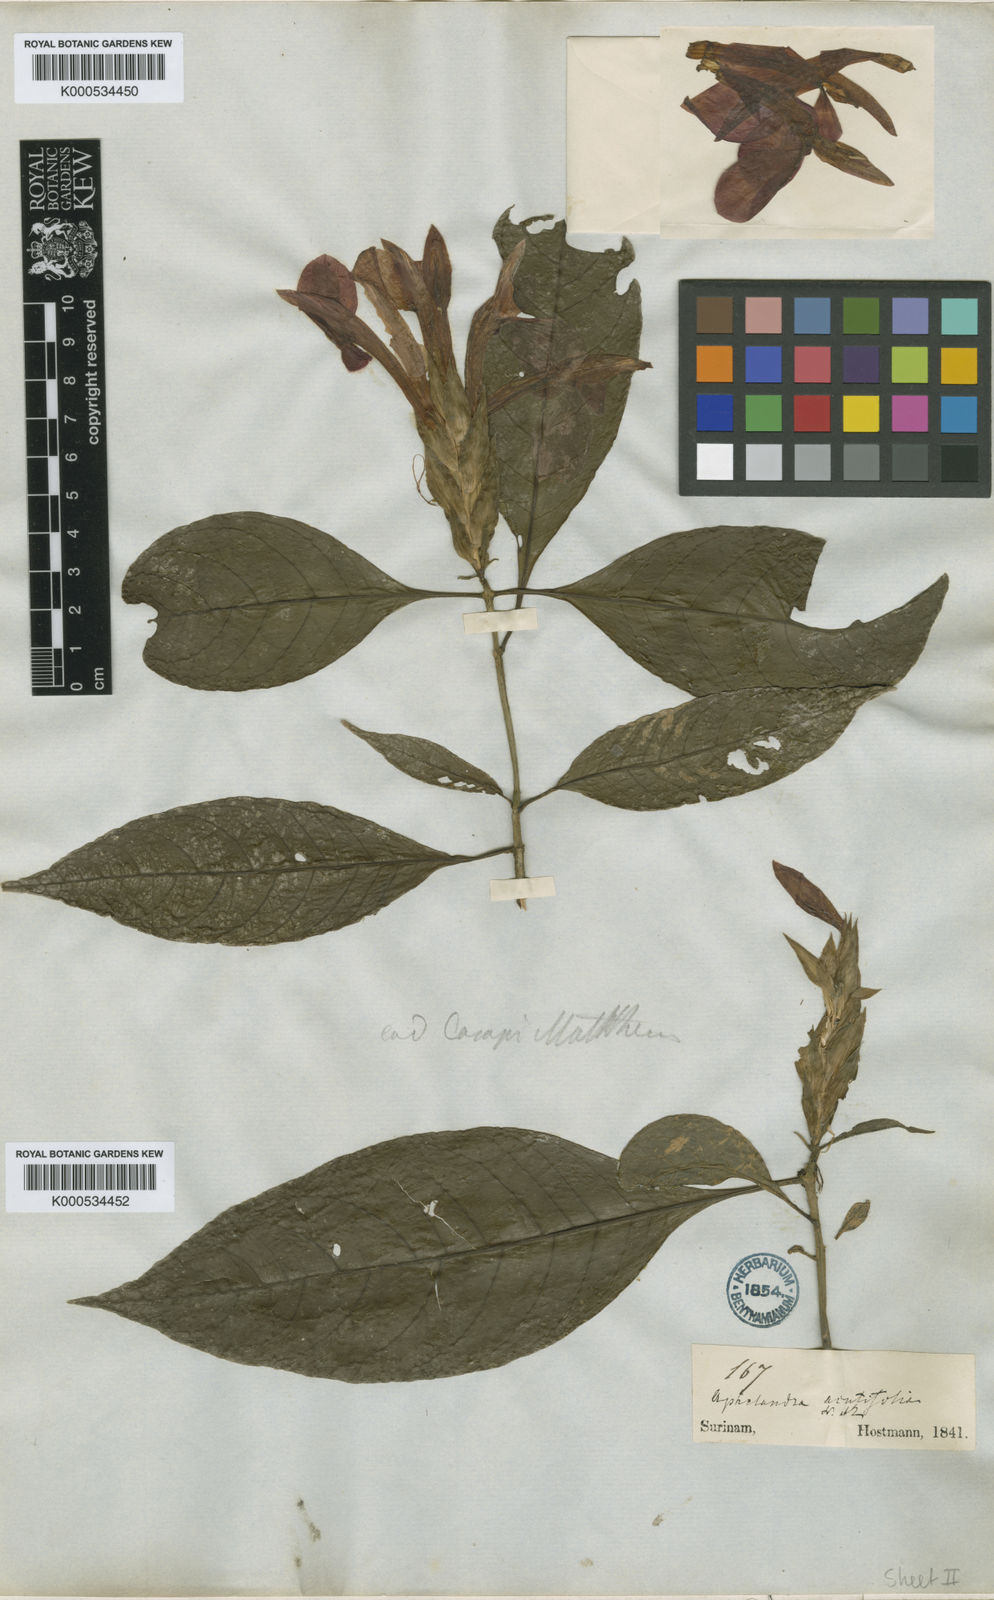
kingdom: Plantae
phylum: Tracheophyta
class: Magnoliopsida
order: Lamiales
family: Acanthaceae
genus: Aphelandra
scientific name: Aphelandra aurantiaca
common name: Fiery spike
